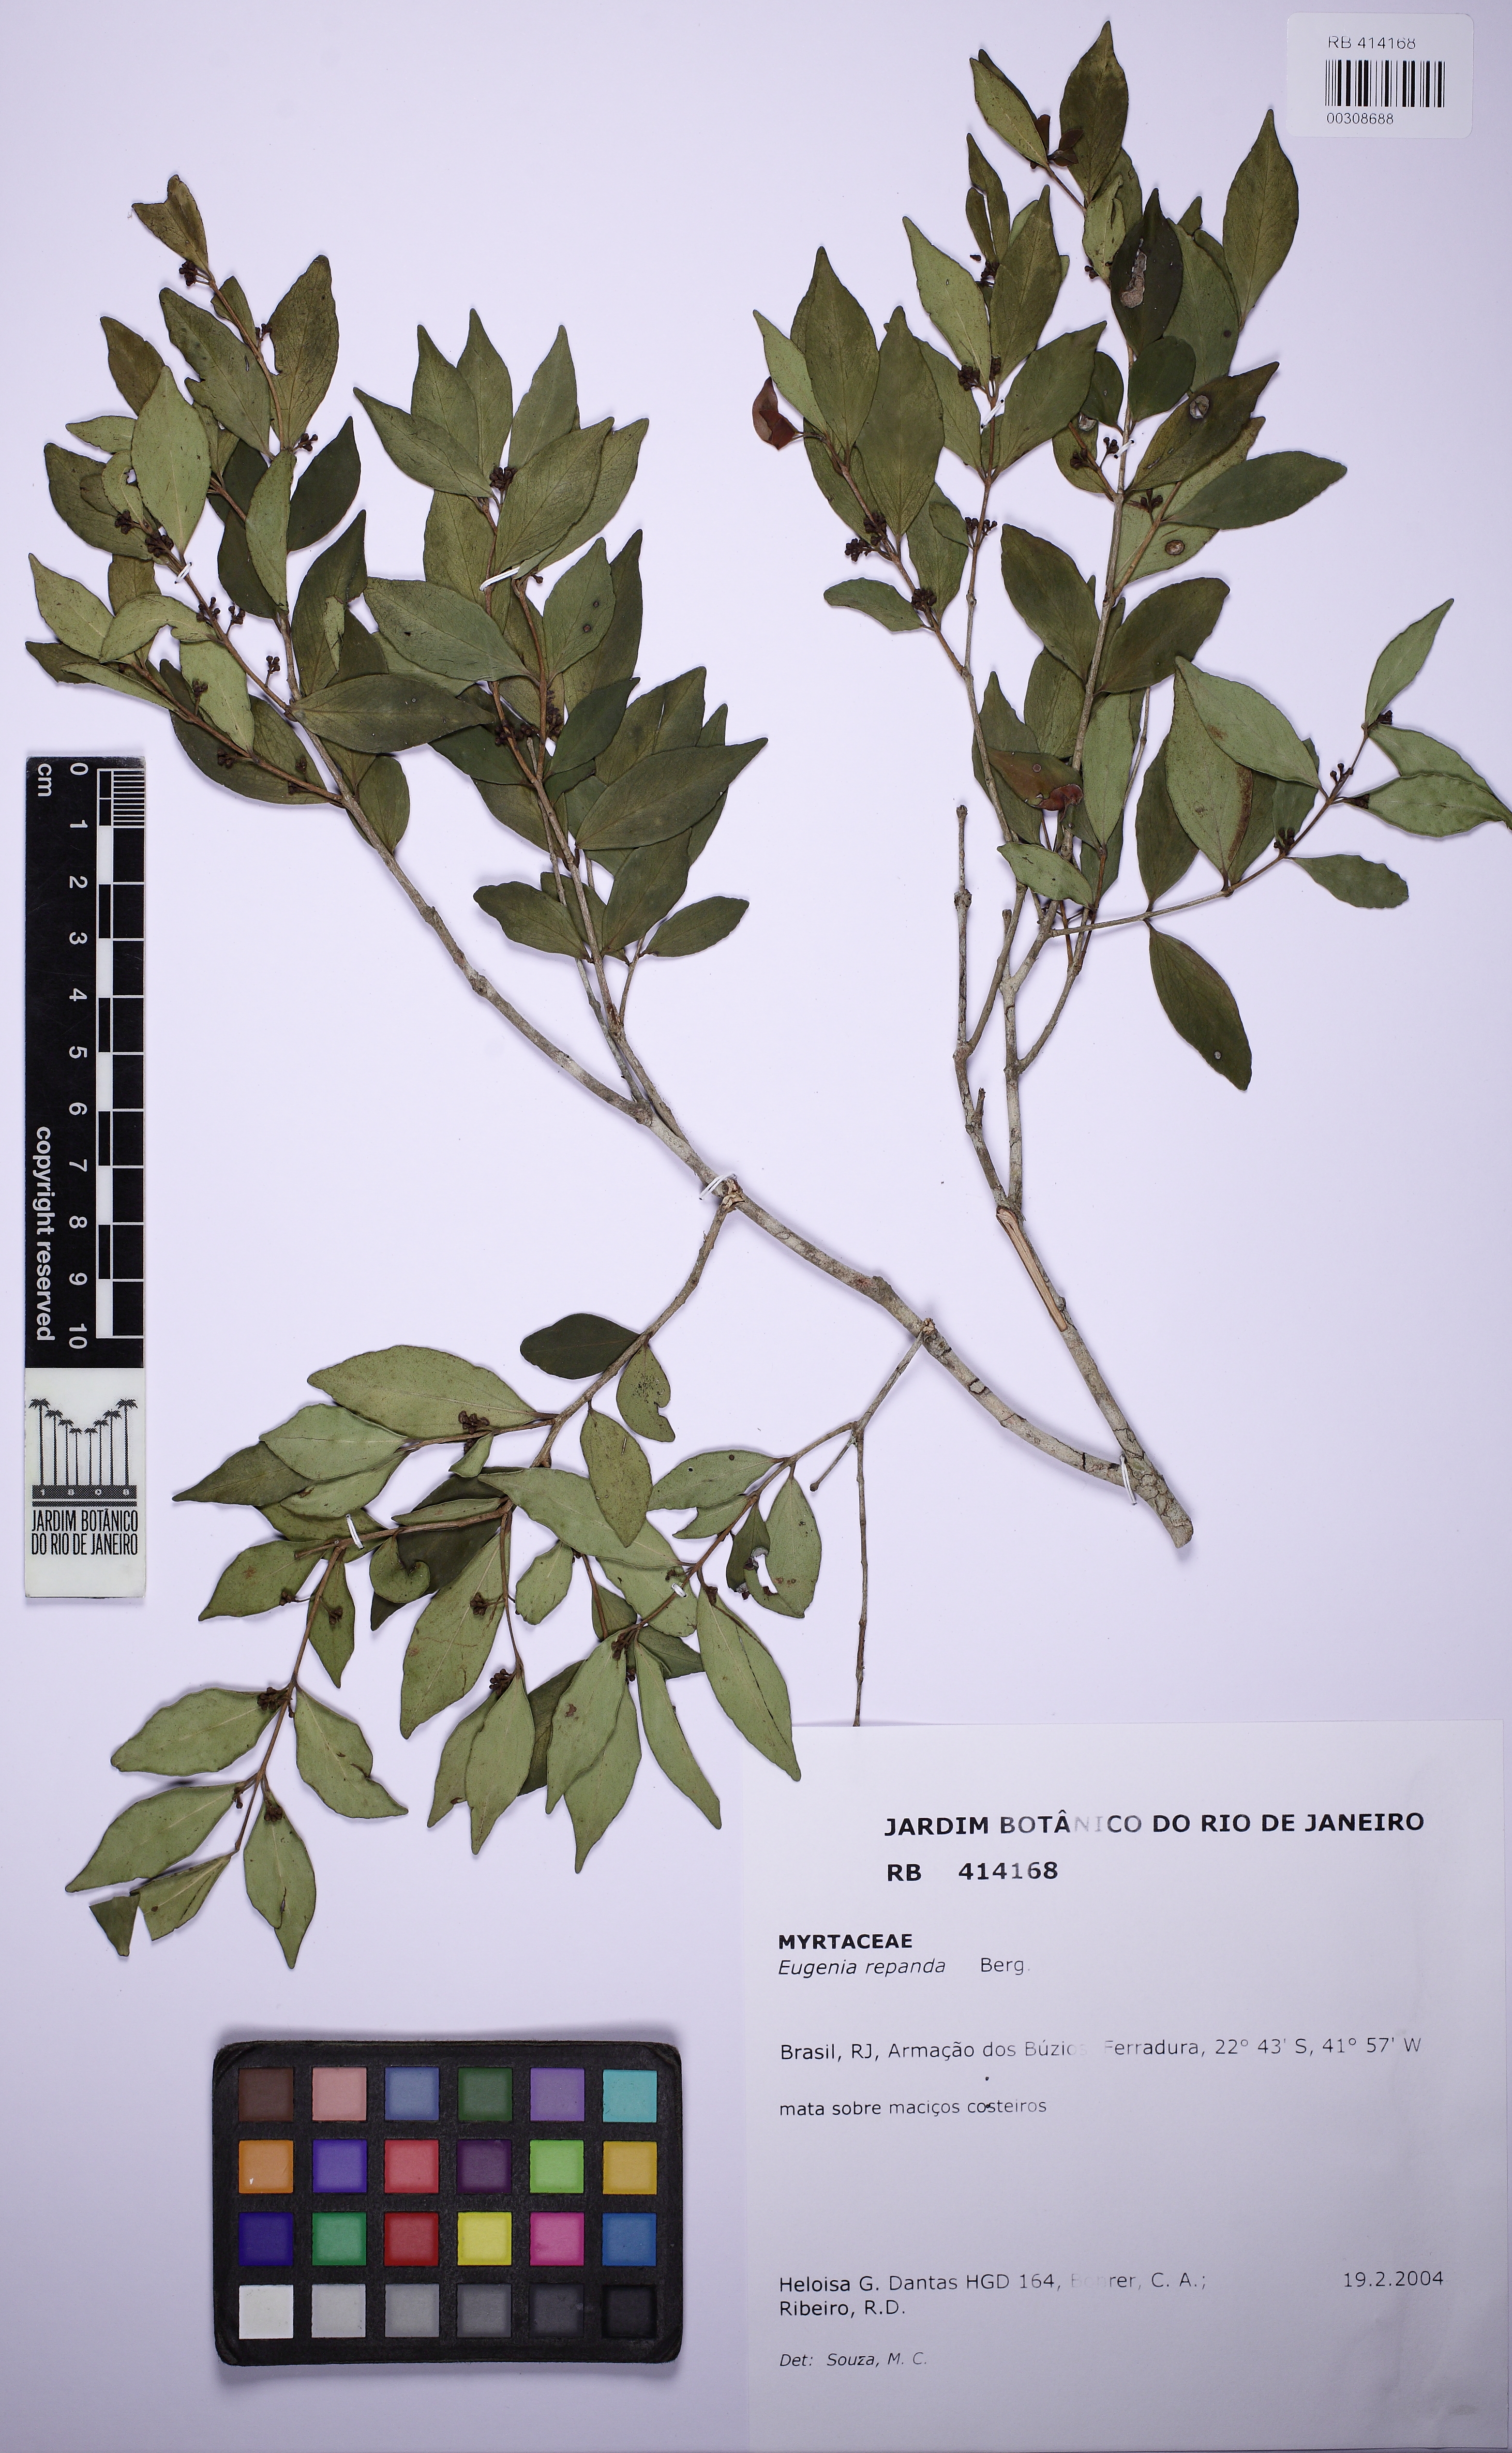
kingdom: Plantae
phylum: Tracheophyta
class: Magnoliopsida
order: Myrtales
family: Myrtaceae
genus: Eugenia
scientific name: Eugenia repanda
